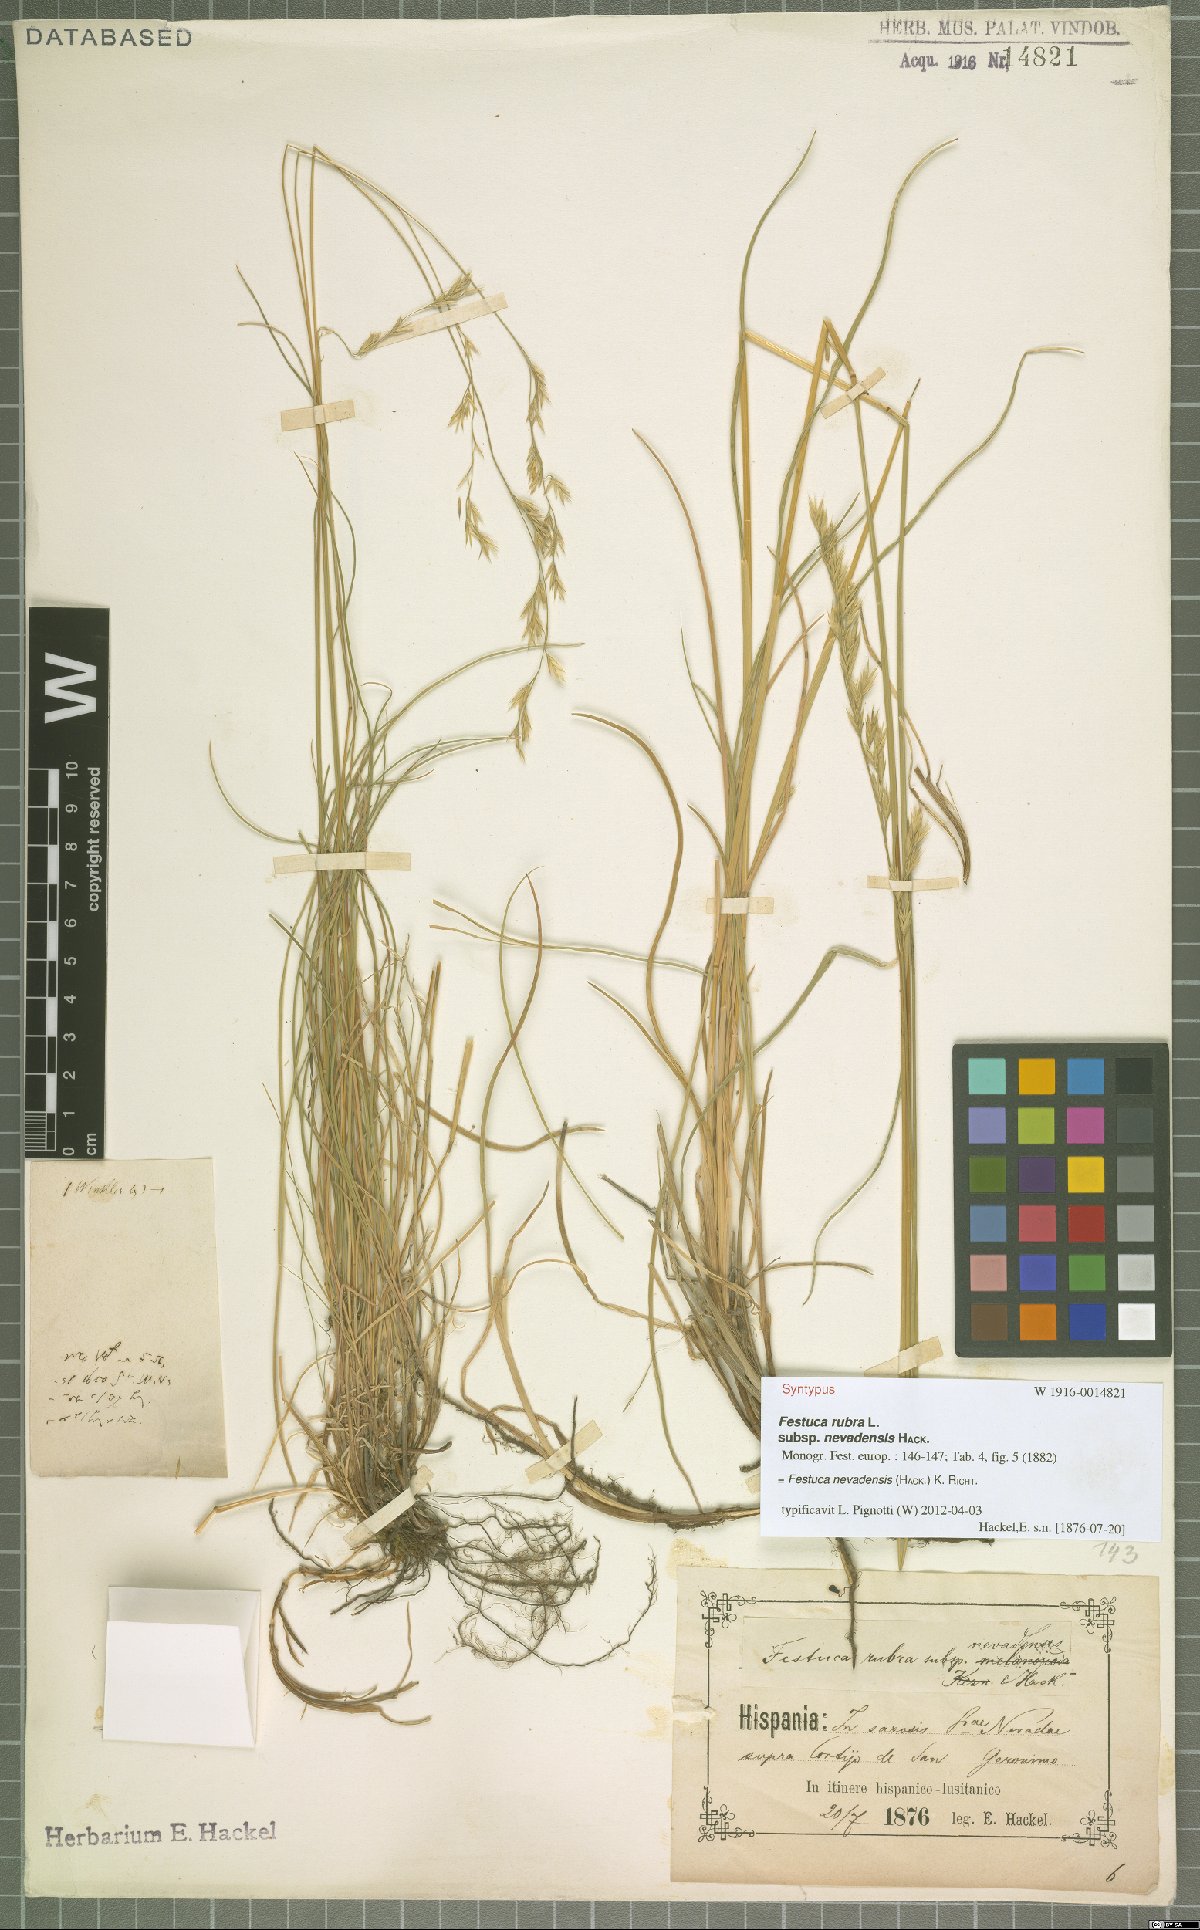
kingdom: Plantae
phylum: Tracheophyta
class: Liliopsida
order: Poales
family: Poaceae
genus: Festuca
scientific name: Festuca nevadensis
